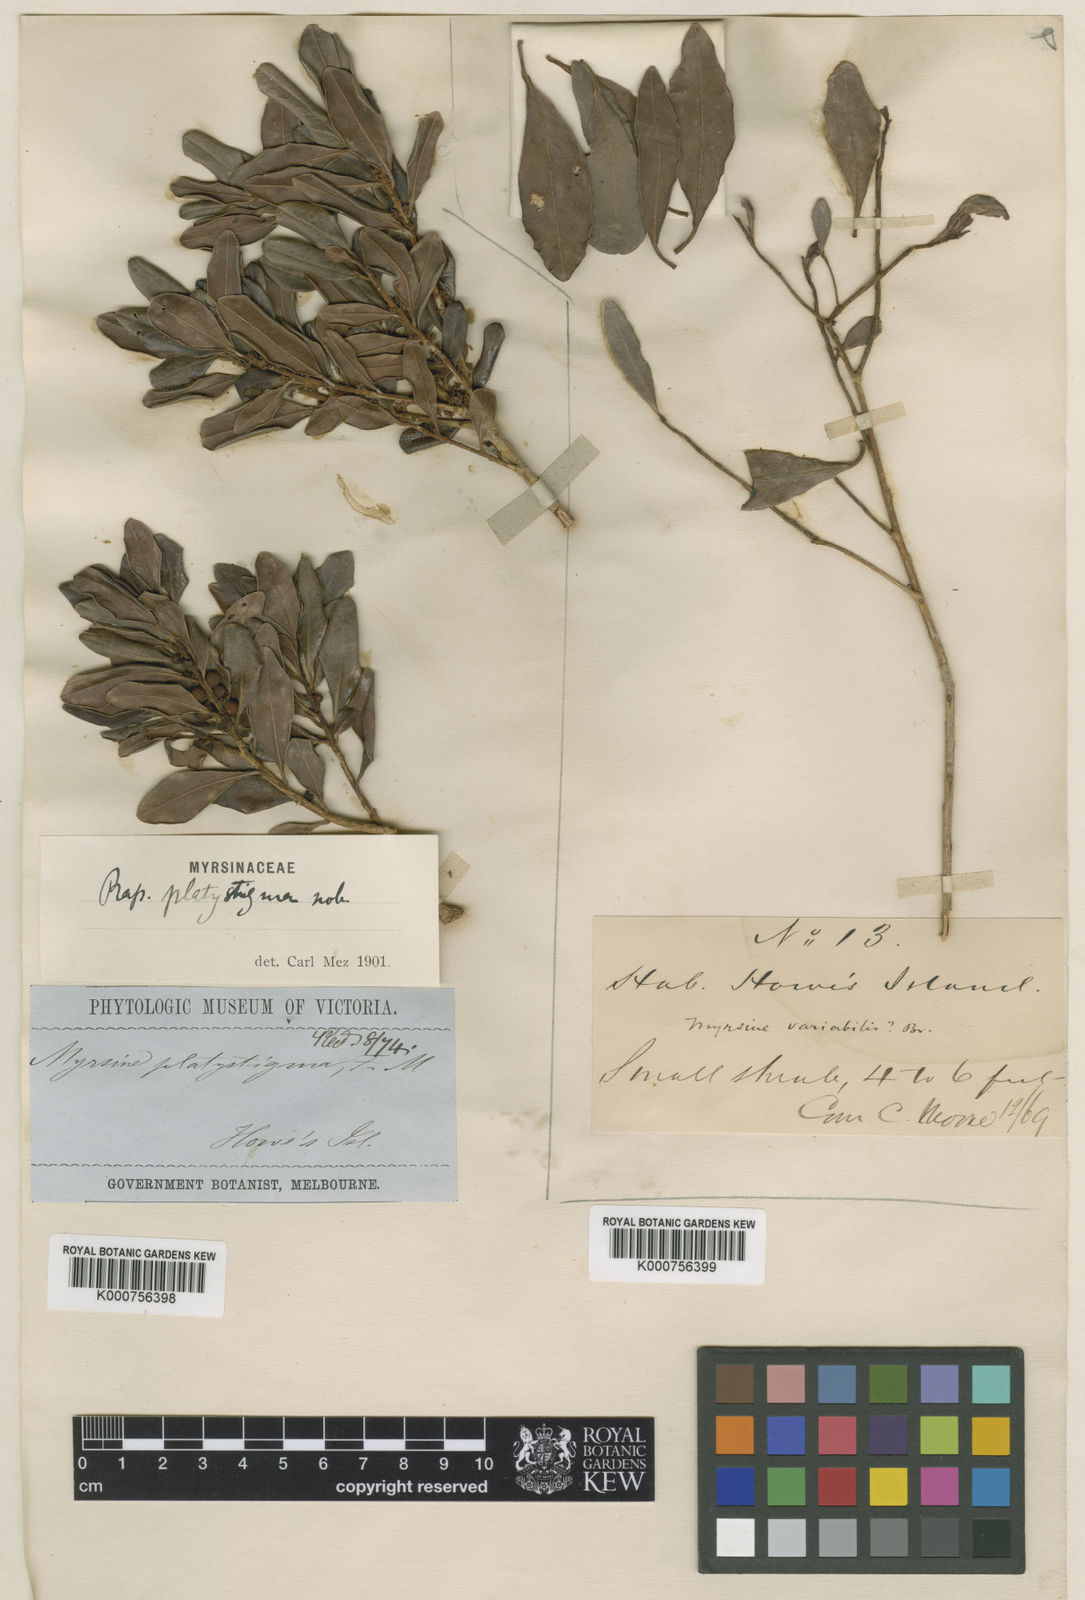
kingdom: Plantae
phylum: Tracheophyta
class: Magnoliopsida
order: Ericales
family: Primulaceae
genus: Myrsine
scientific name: Myrsine platystigma
